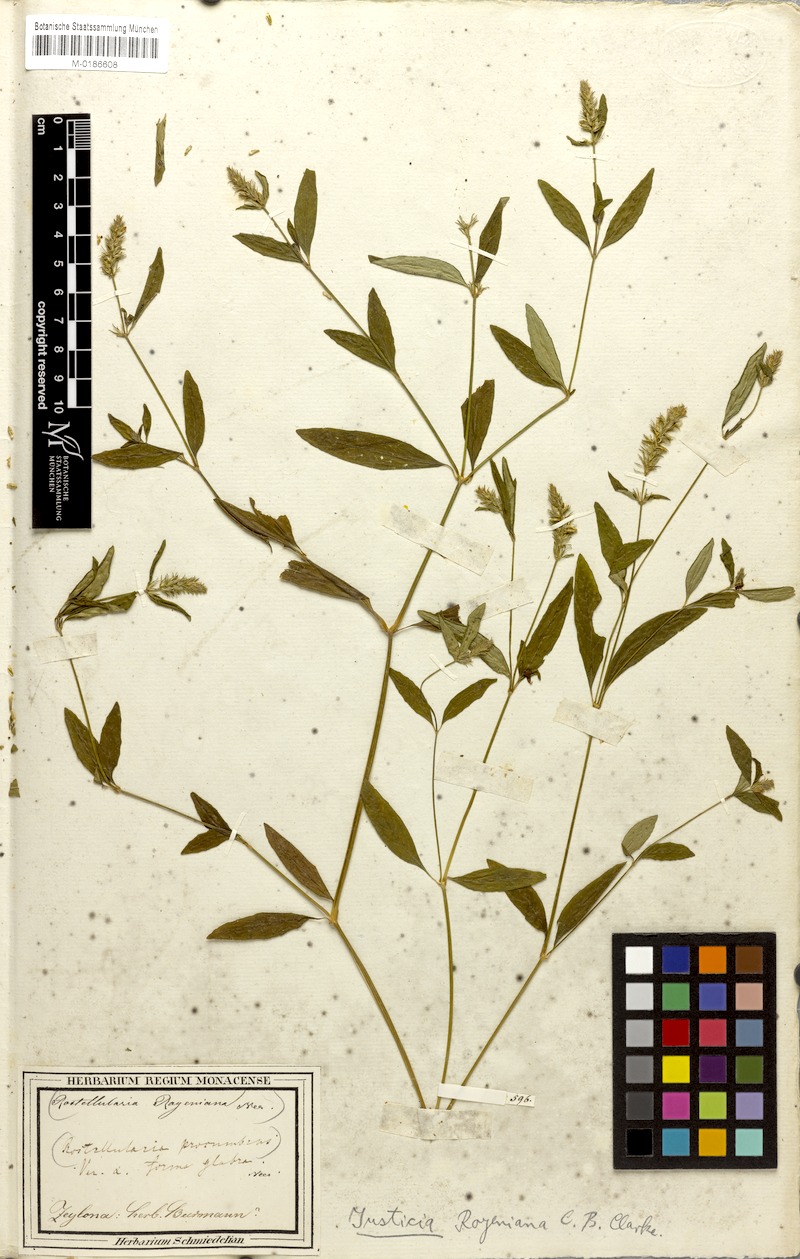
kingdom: Plantae
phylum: Tracheophyta
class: Magnoliopsida
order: Lamiales
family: Acanthaceae
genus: Rostellularia
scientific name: Rostellularia royeniana
